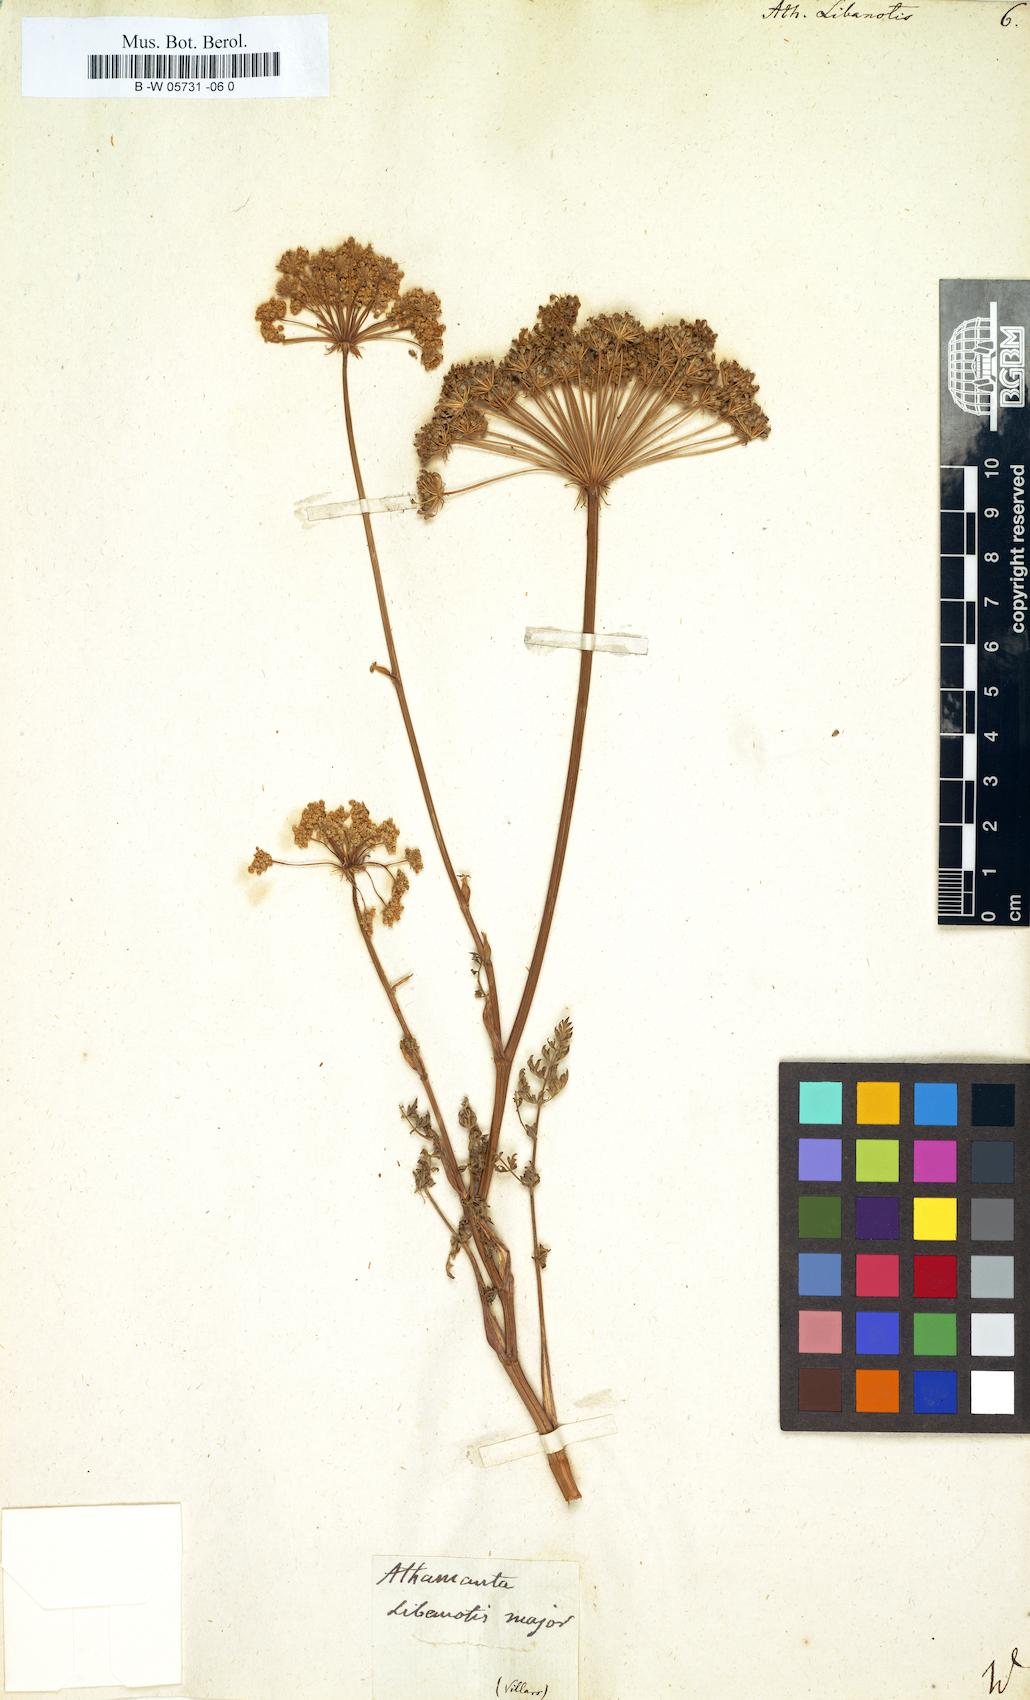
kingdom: Plantae
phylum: Tracheophyta
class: Magnoliopsida
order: Apiales
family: Apiaceae
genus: Seseli
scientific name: Seseli libanotis
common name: Mooncarrot
